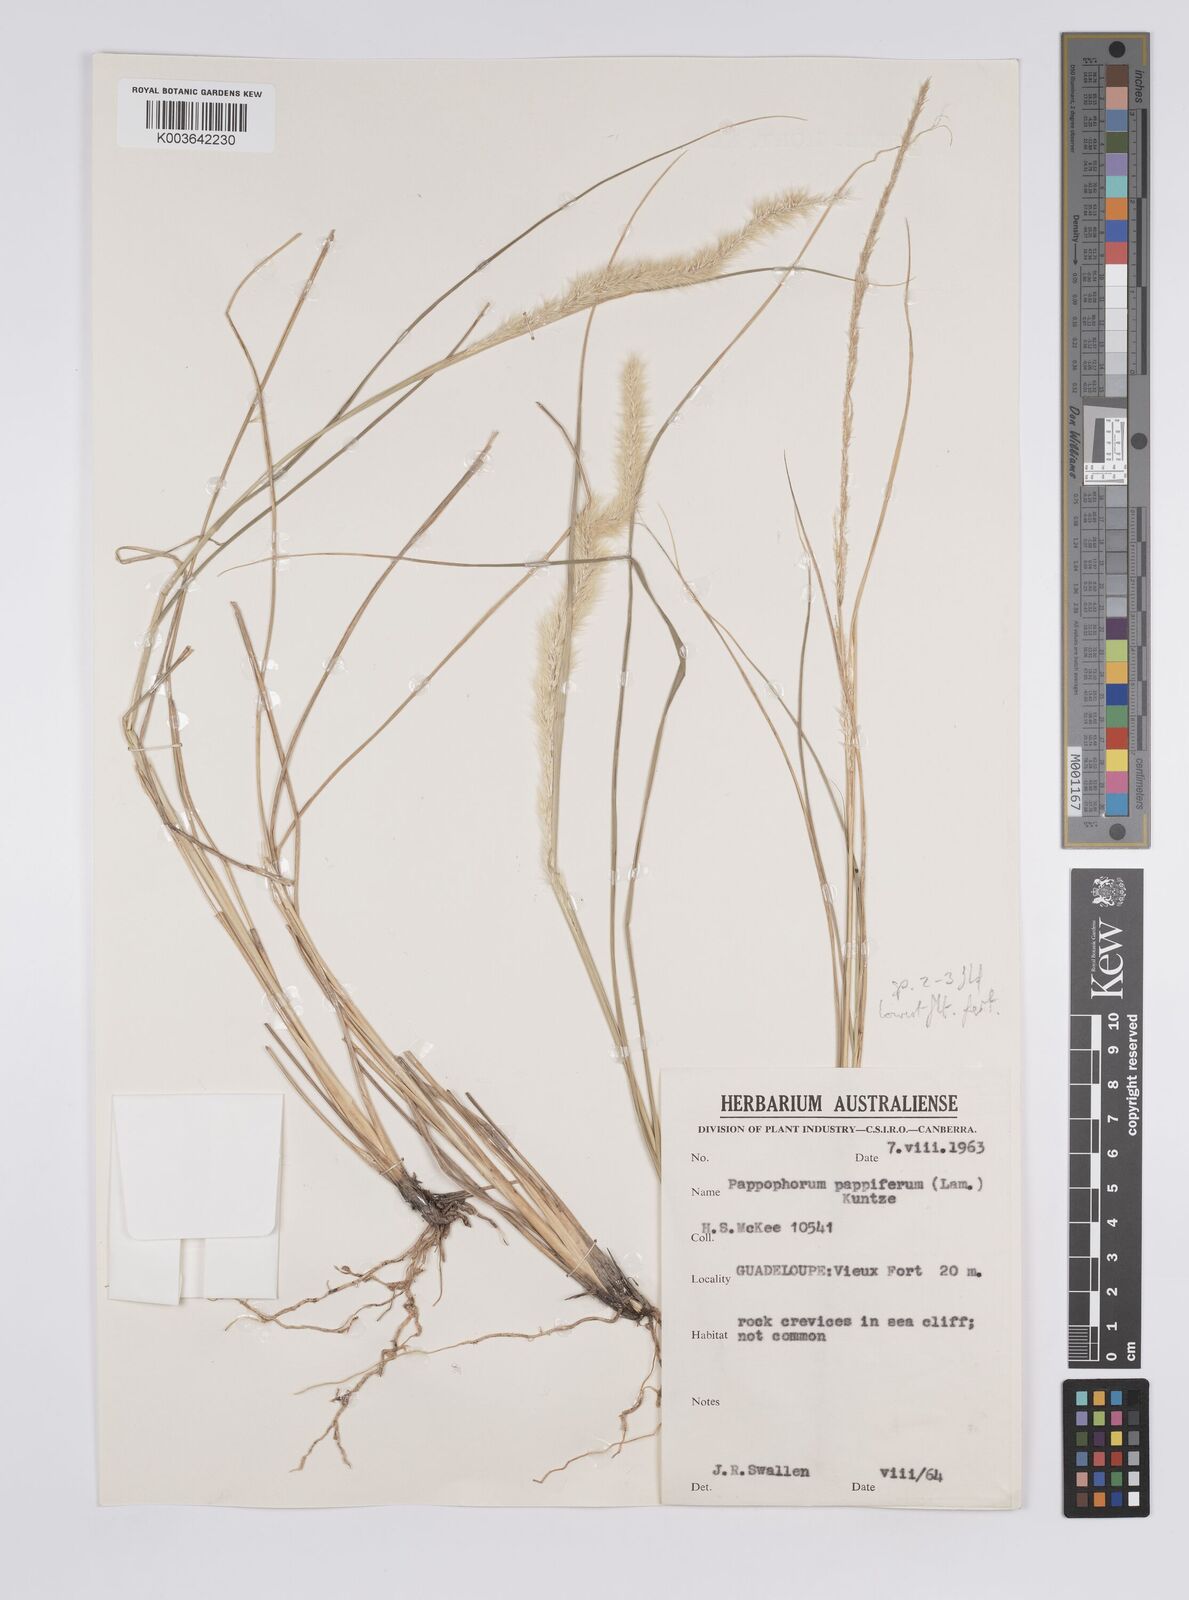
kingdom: Plantae
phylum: Tracheophyta
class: Liliopsida
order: Poales
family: Poaceae
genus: Pappophorum
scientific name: Pappophorum pappiferum
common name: Crabgrass
